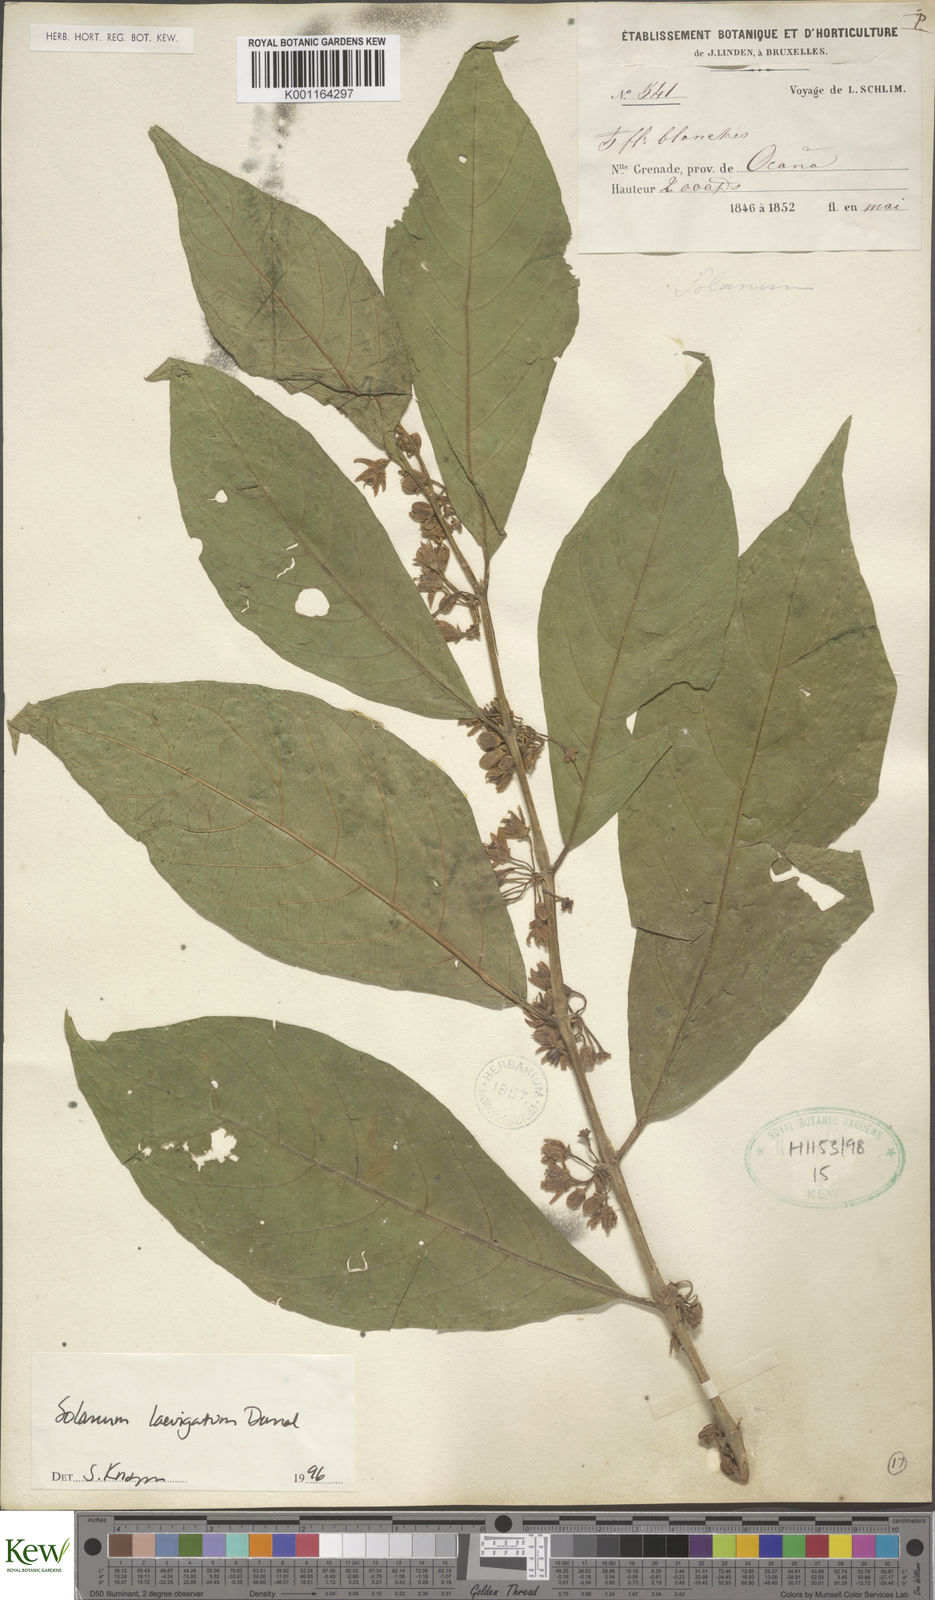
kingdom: Plantae
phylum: Tracheophyta
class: Magnoliopsida
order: Solanales
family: Solanaceae
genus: Solanum
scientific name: Solanum nudum
